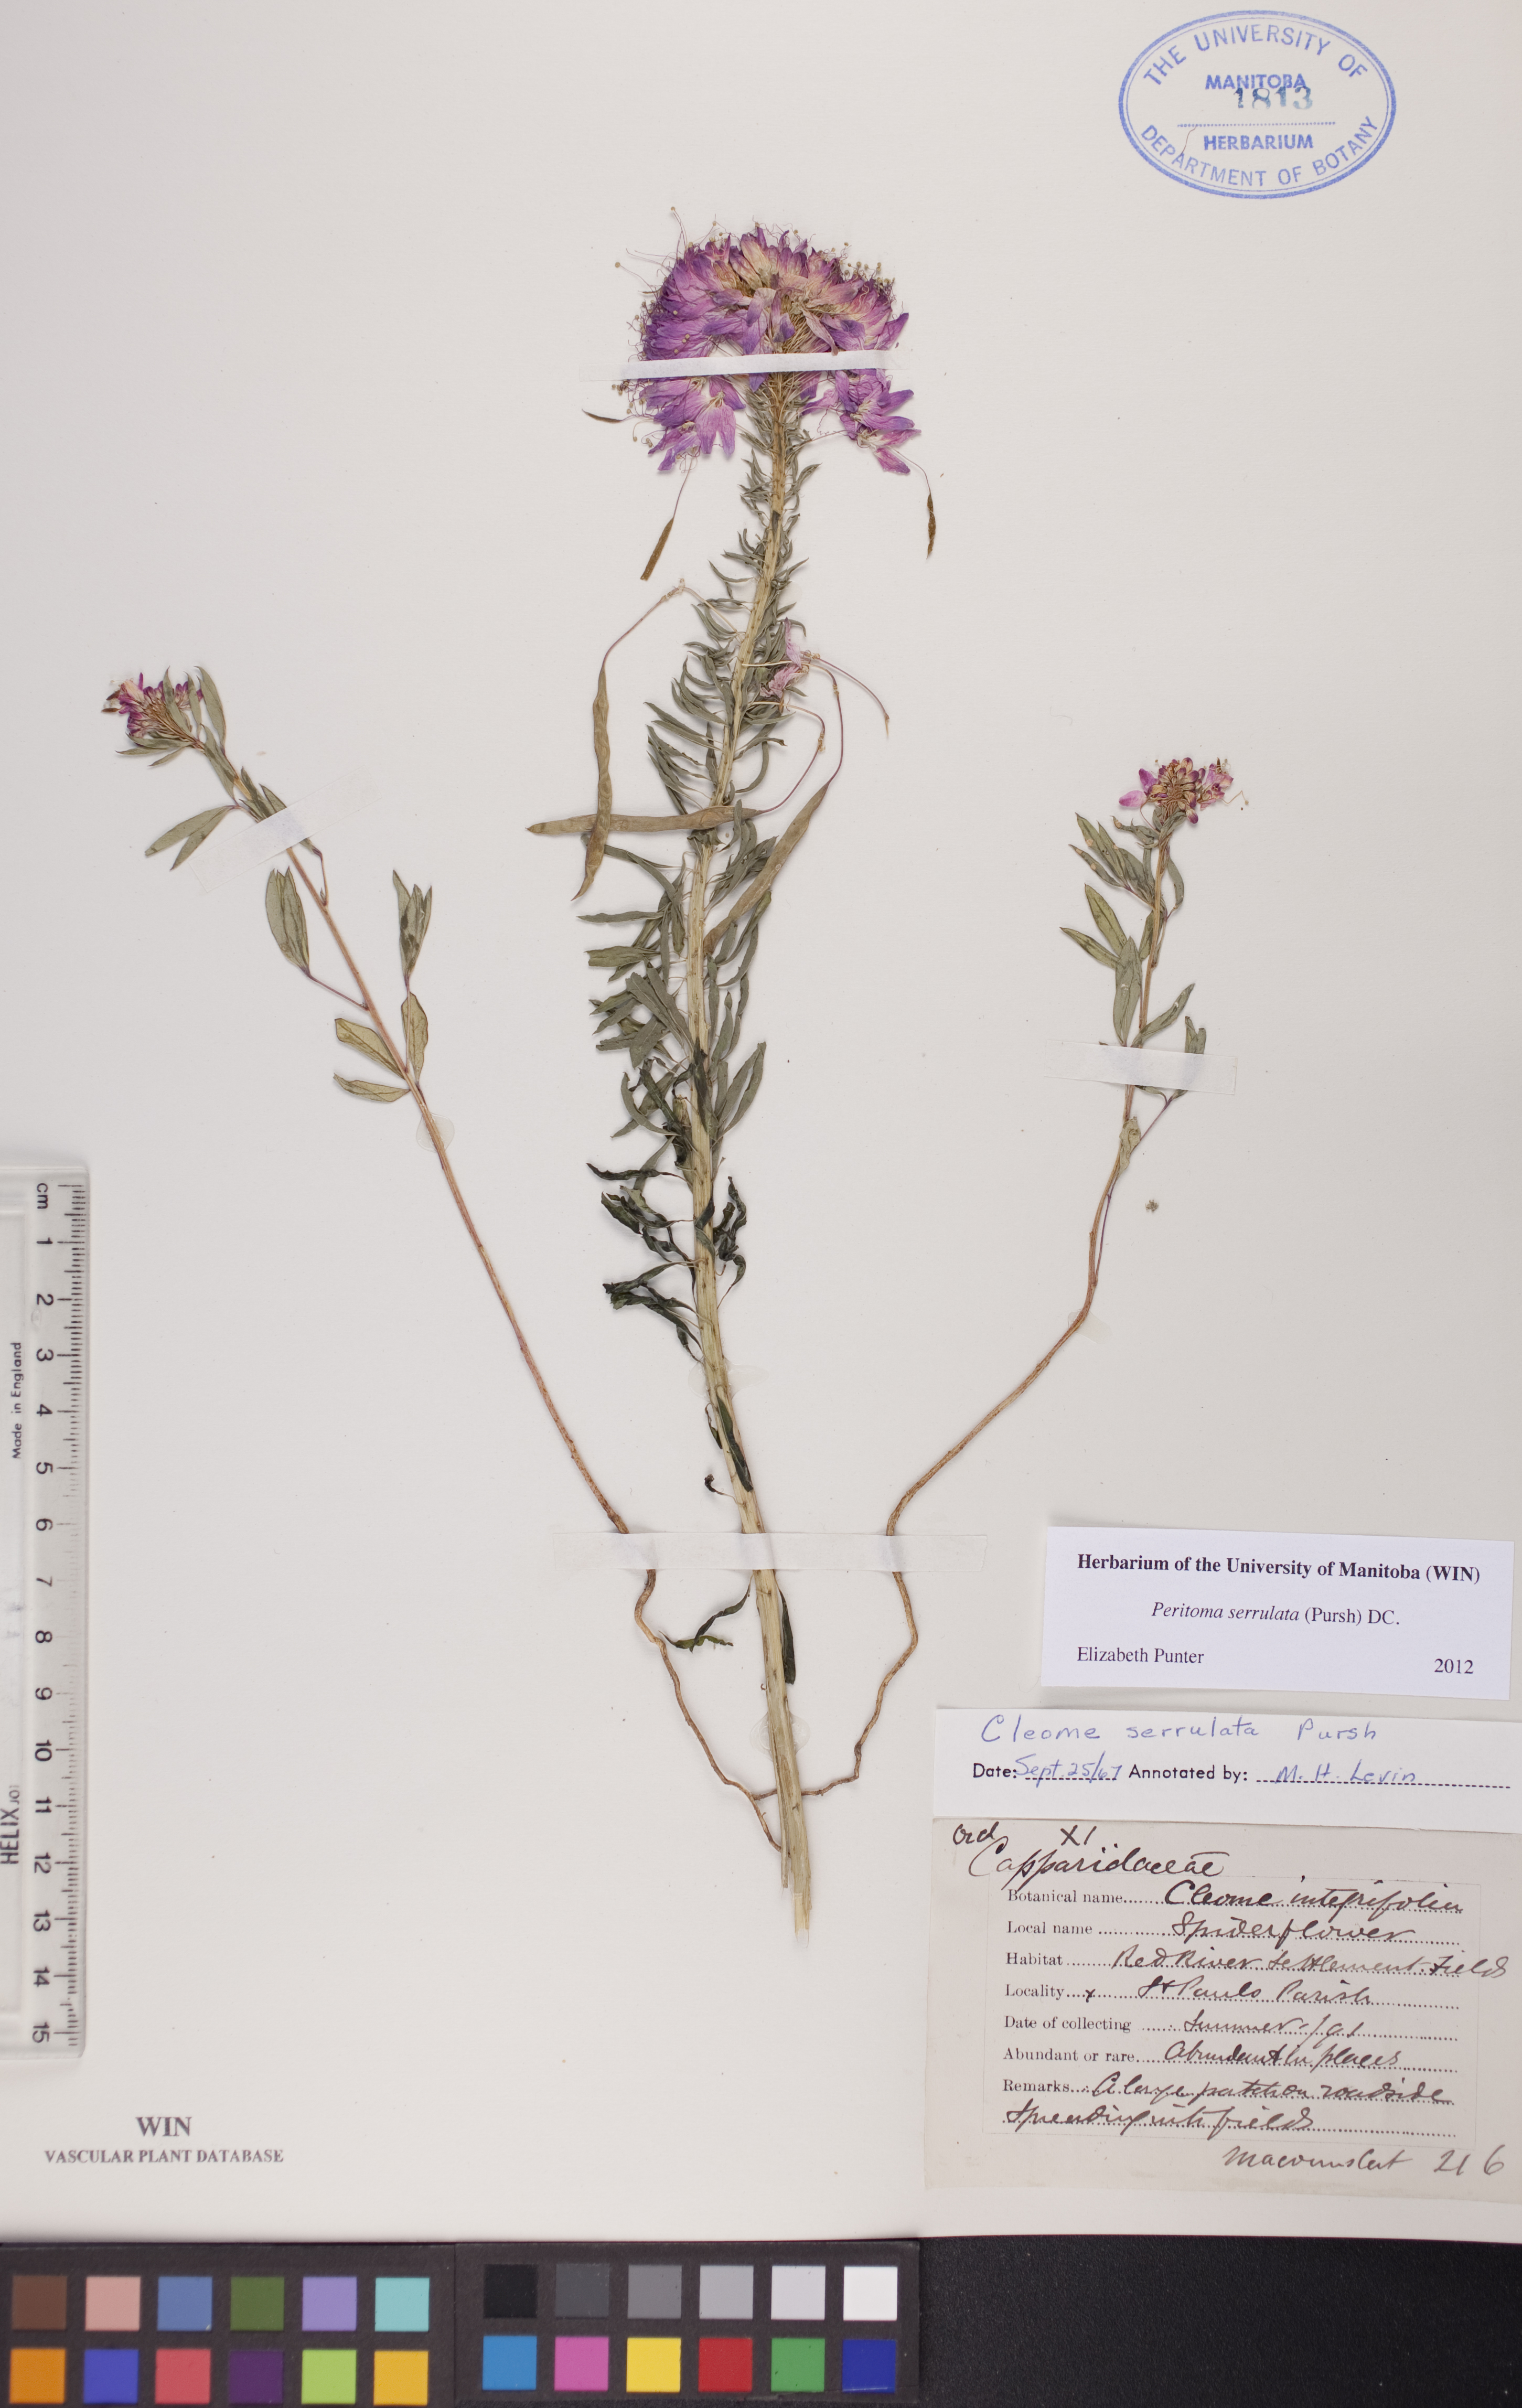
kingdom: Plantae
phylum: Tracheophyta
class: Magnoliopsida
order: Brassicales
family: Cleomaceae
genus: Cleomella
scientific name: Cleomella serrulata
